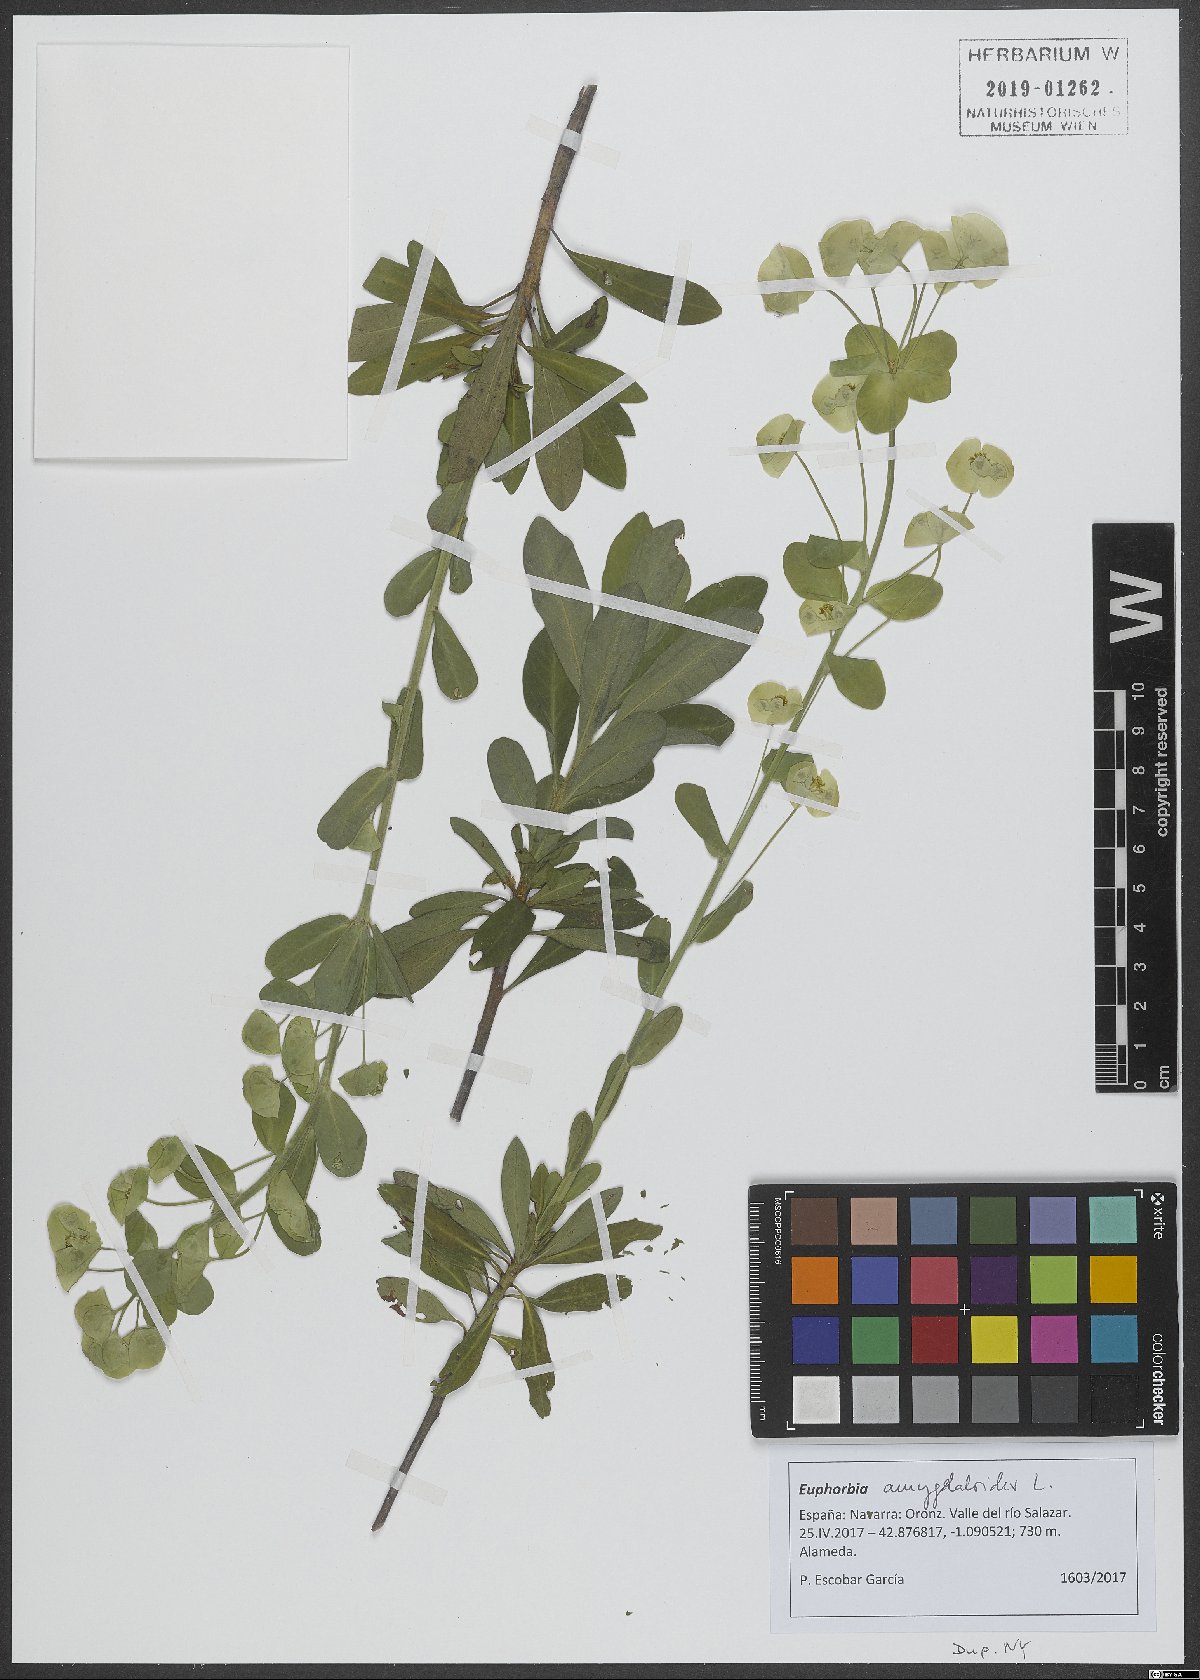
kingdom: Plantae
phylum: Tracheophyta
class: Magnoliopsida
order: Malpighiales
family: Euphorbiaceae
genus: Euphorbia
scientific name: Euphorbia amygdaloides
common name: Wood spurge
